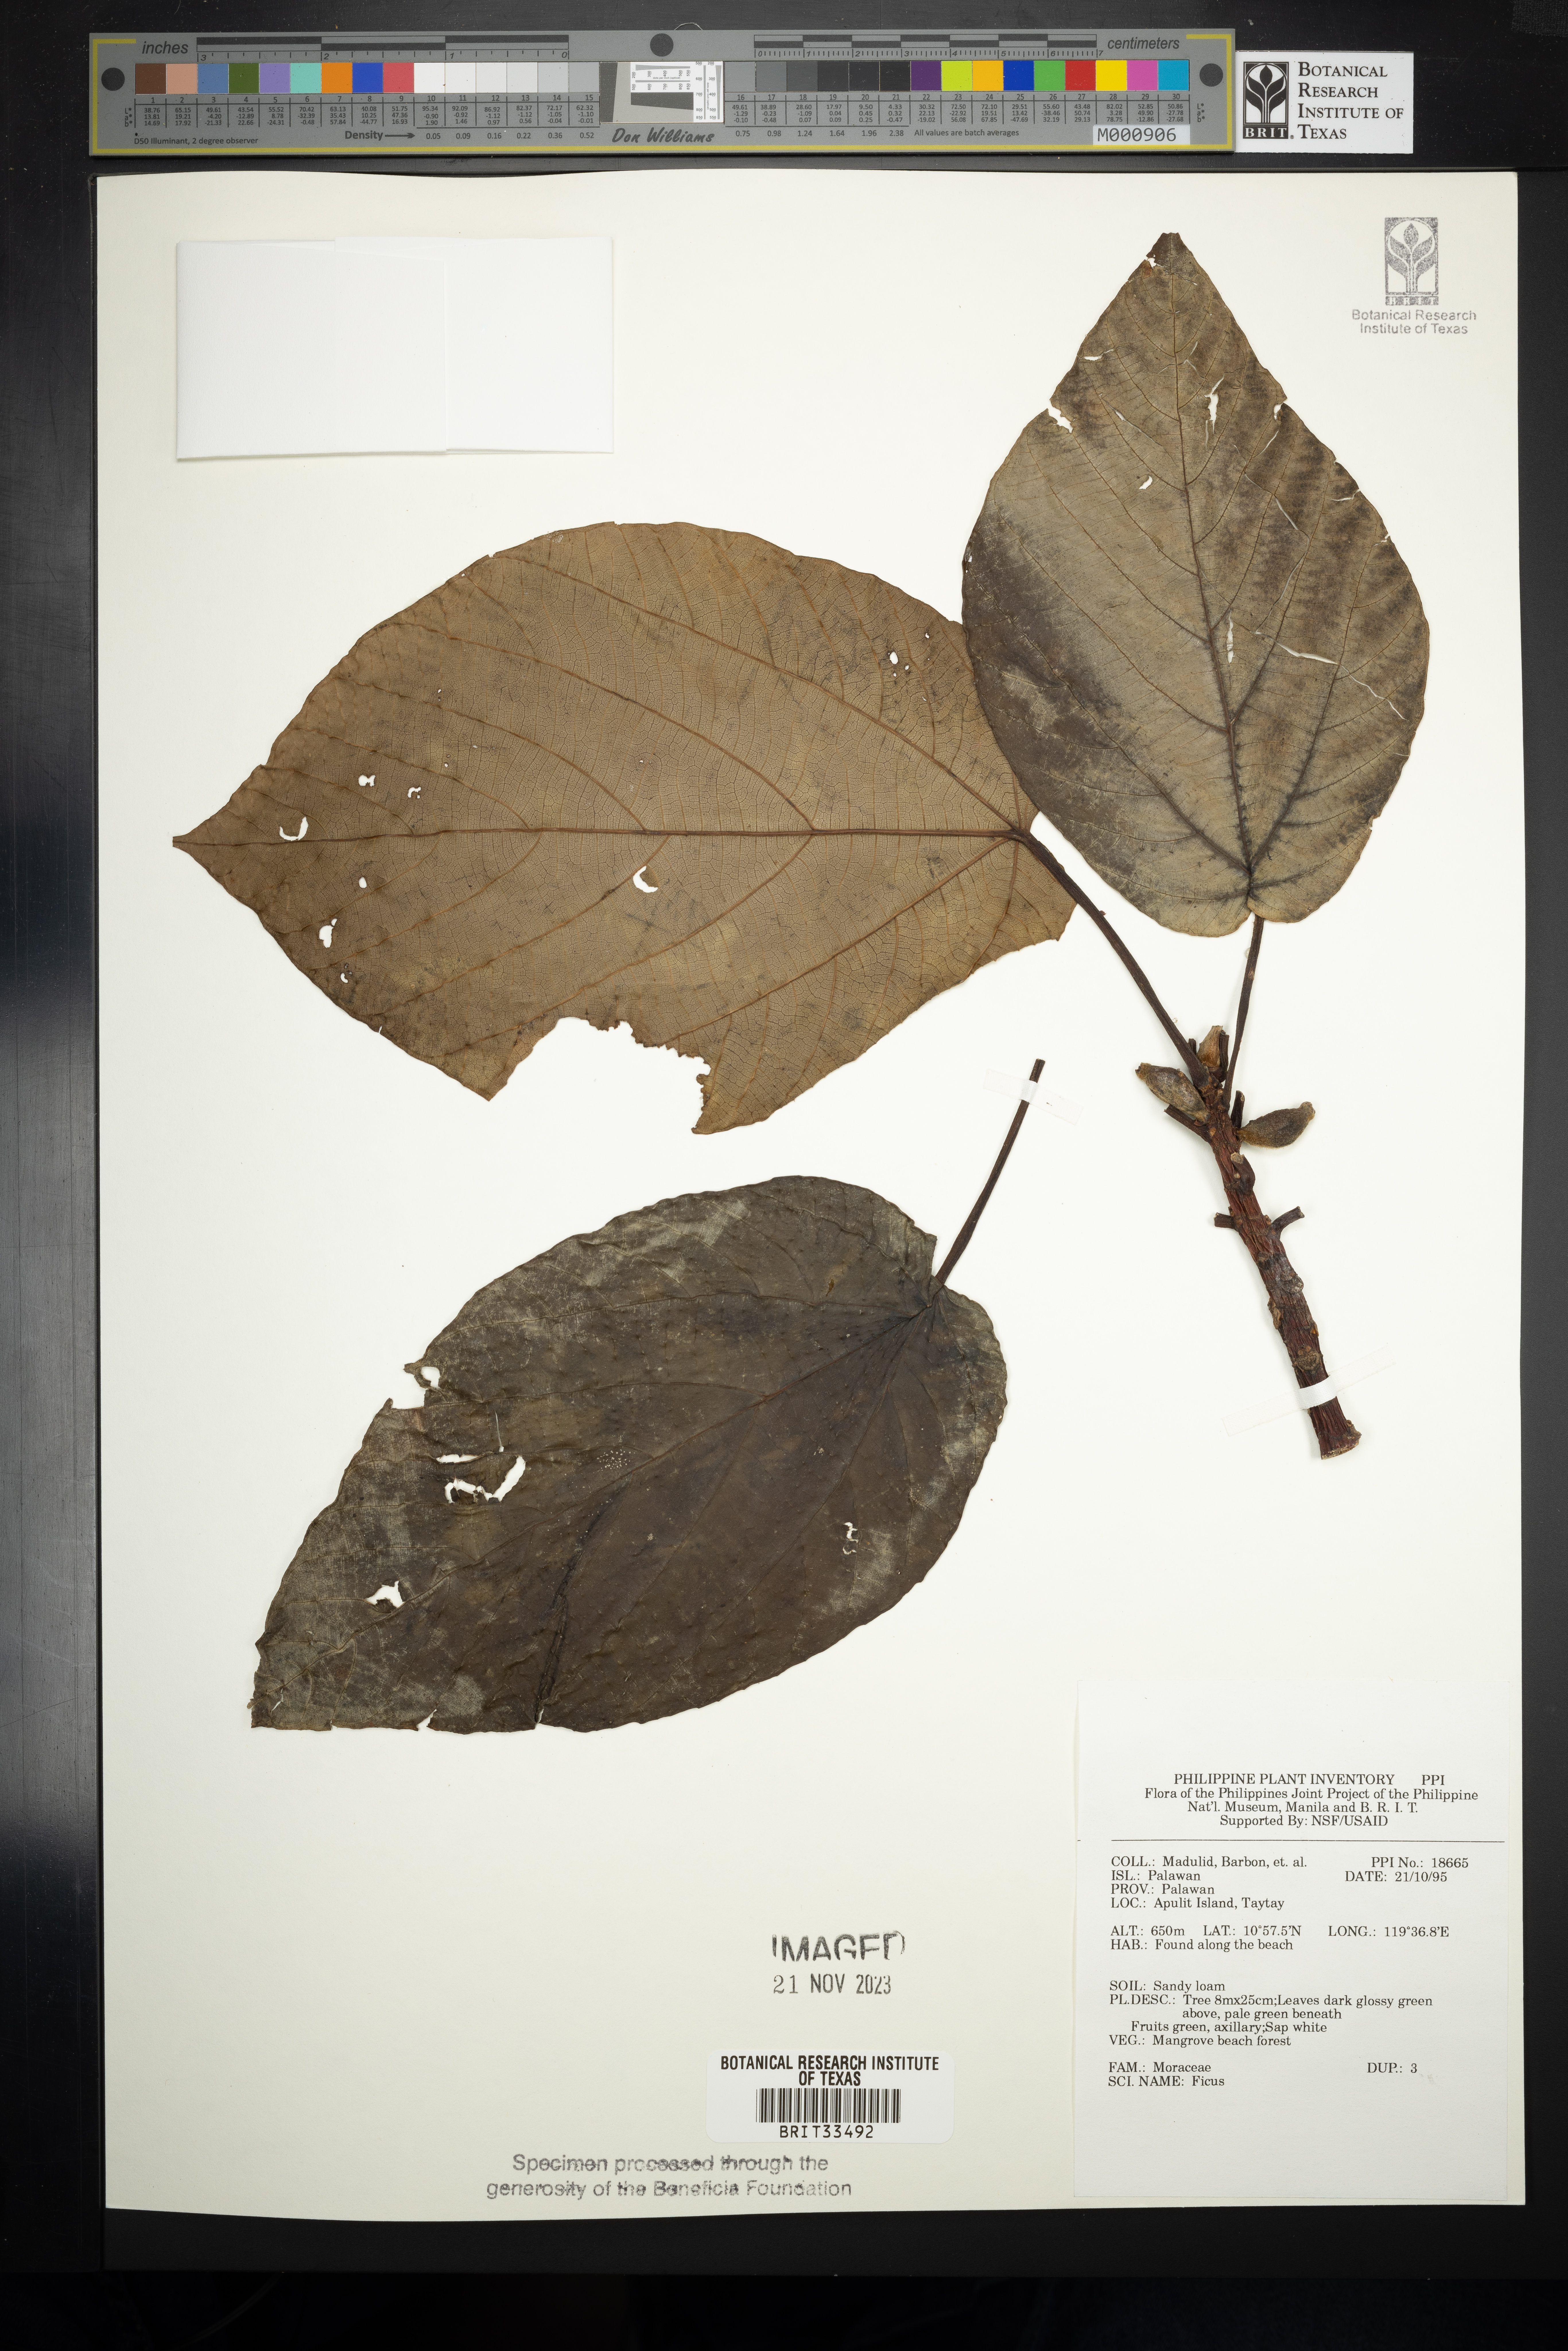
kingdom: Plantae
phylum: Tracheophyta
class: Magnoliopsida
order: Rosales
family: Moraceae
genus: Ficus
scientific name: Ficus
